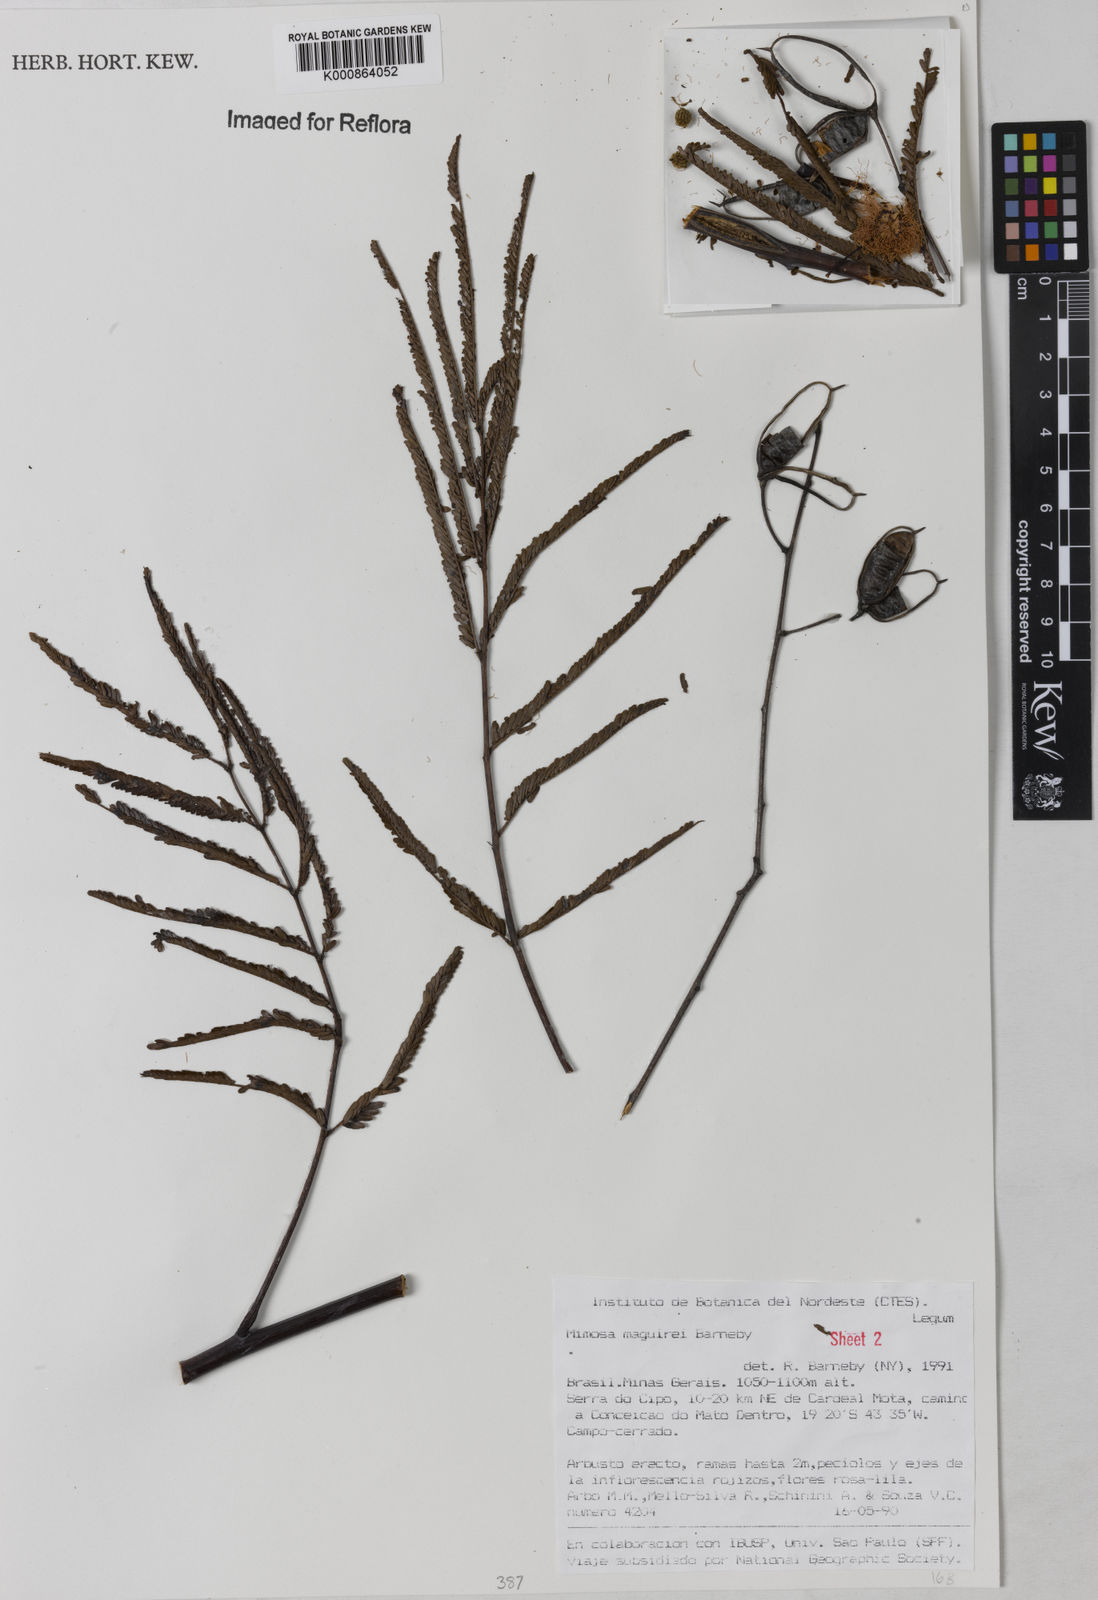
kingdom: Plantae
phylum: Tracheophyta
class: Magnoliopsida
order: Fabales
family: Fabaceae
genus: Mimosa
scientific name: Mimosa maguirei
